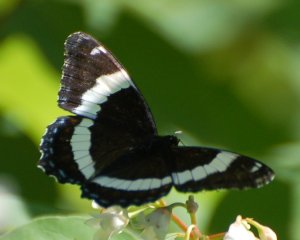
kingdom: Animalia
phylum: Arthropoda
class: Insecta
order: Lepidoptera
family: Nymphalidae
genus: Limenitis
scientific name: Limenitis arthemis
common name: Red-spotted Admiral
